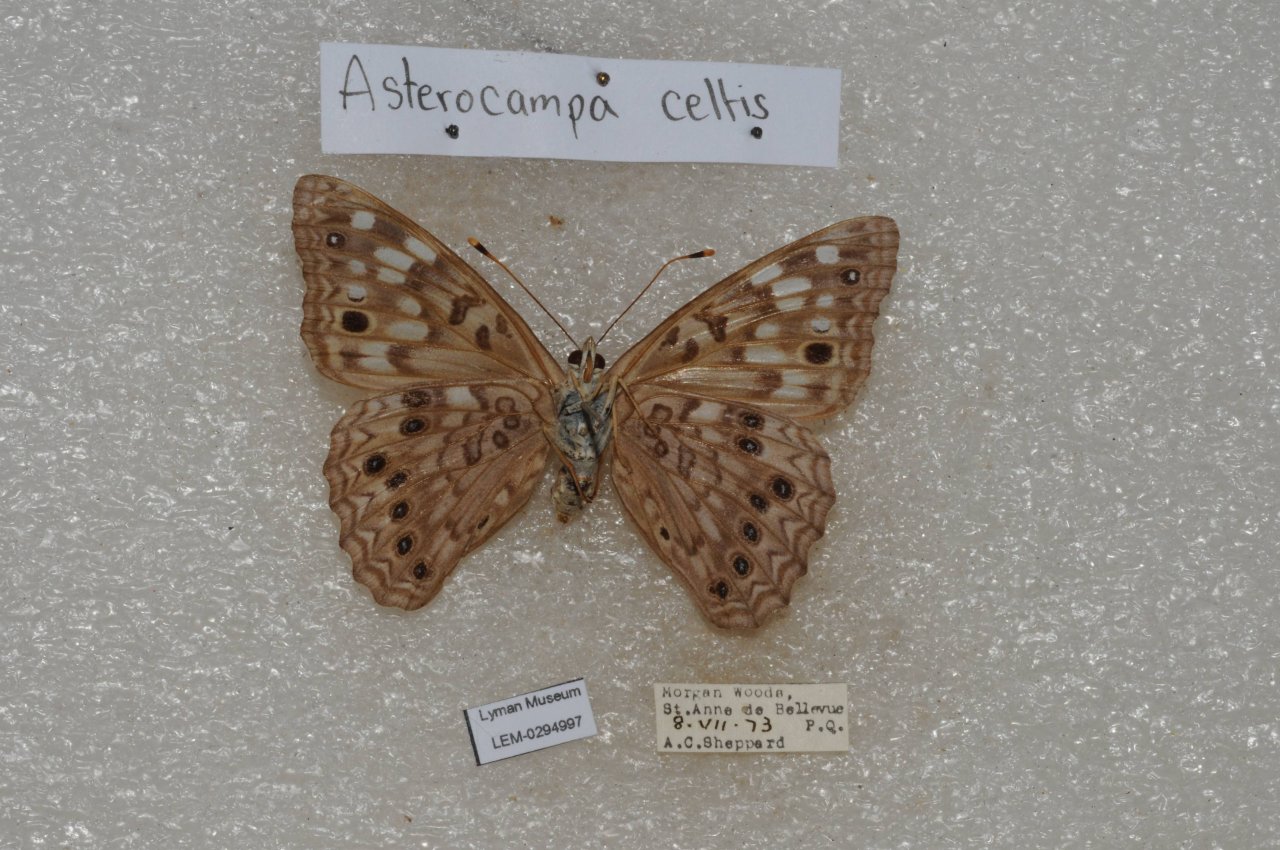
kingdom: Animalia
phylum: Arthropoda
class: Insecta
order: Lepidoptera
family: Nymphalidae
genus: Asterocampa
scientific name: Asterocampa celtis
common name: Hackberry Emperor
